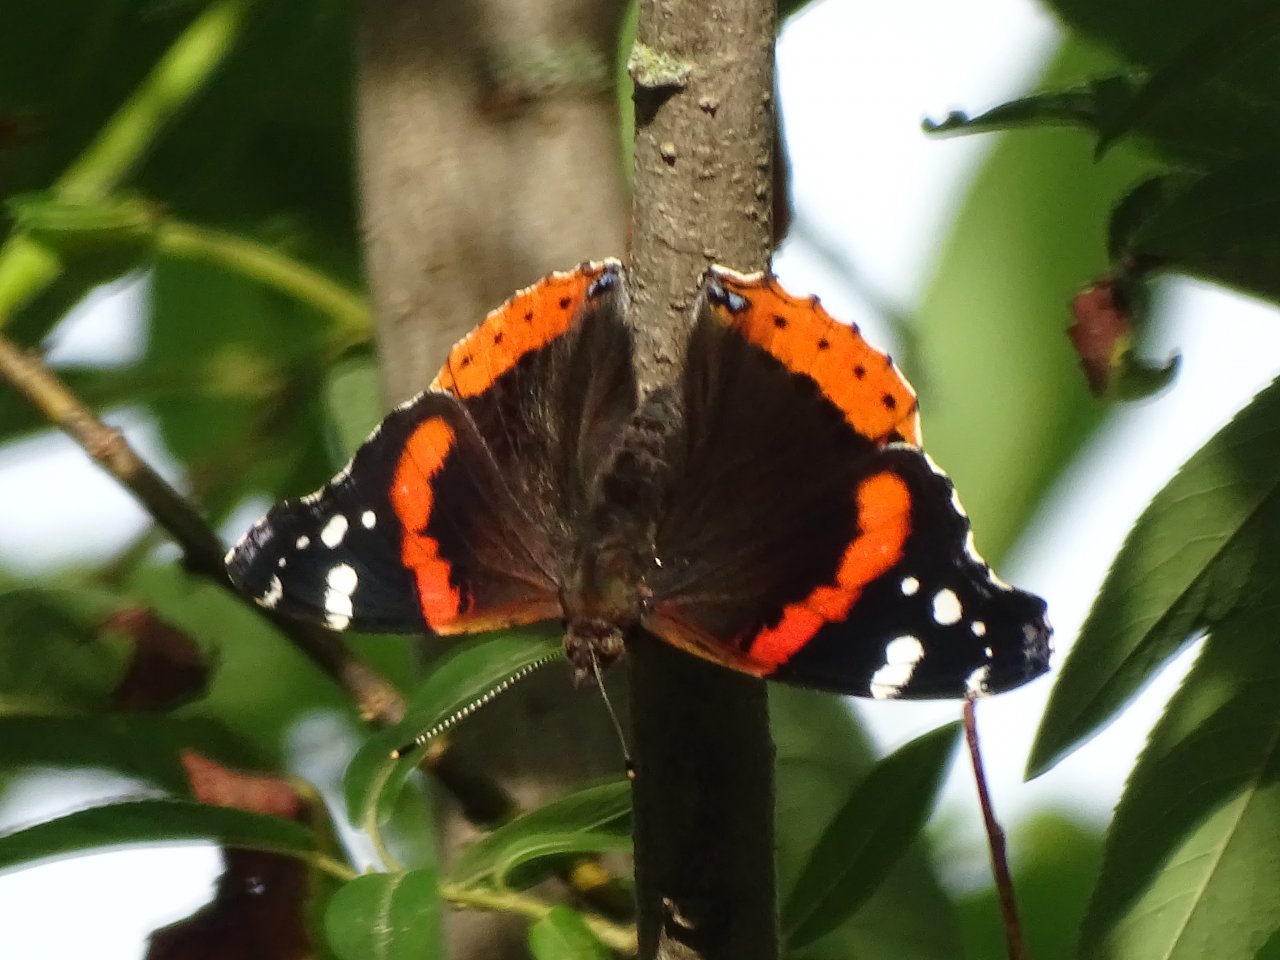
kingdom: Animalia
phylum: Arthropoda
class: Insecta
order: Lepidoptera
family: Nymphalidae
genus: Vanessa
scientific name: Vanessa atalanta
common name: Red Admiral
